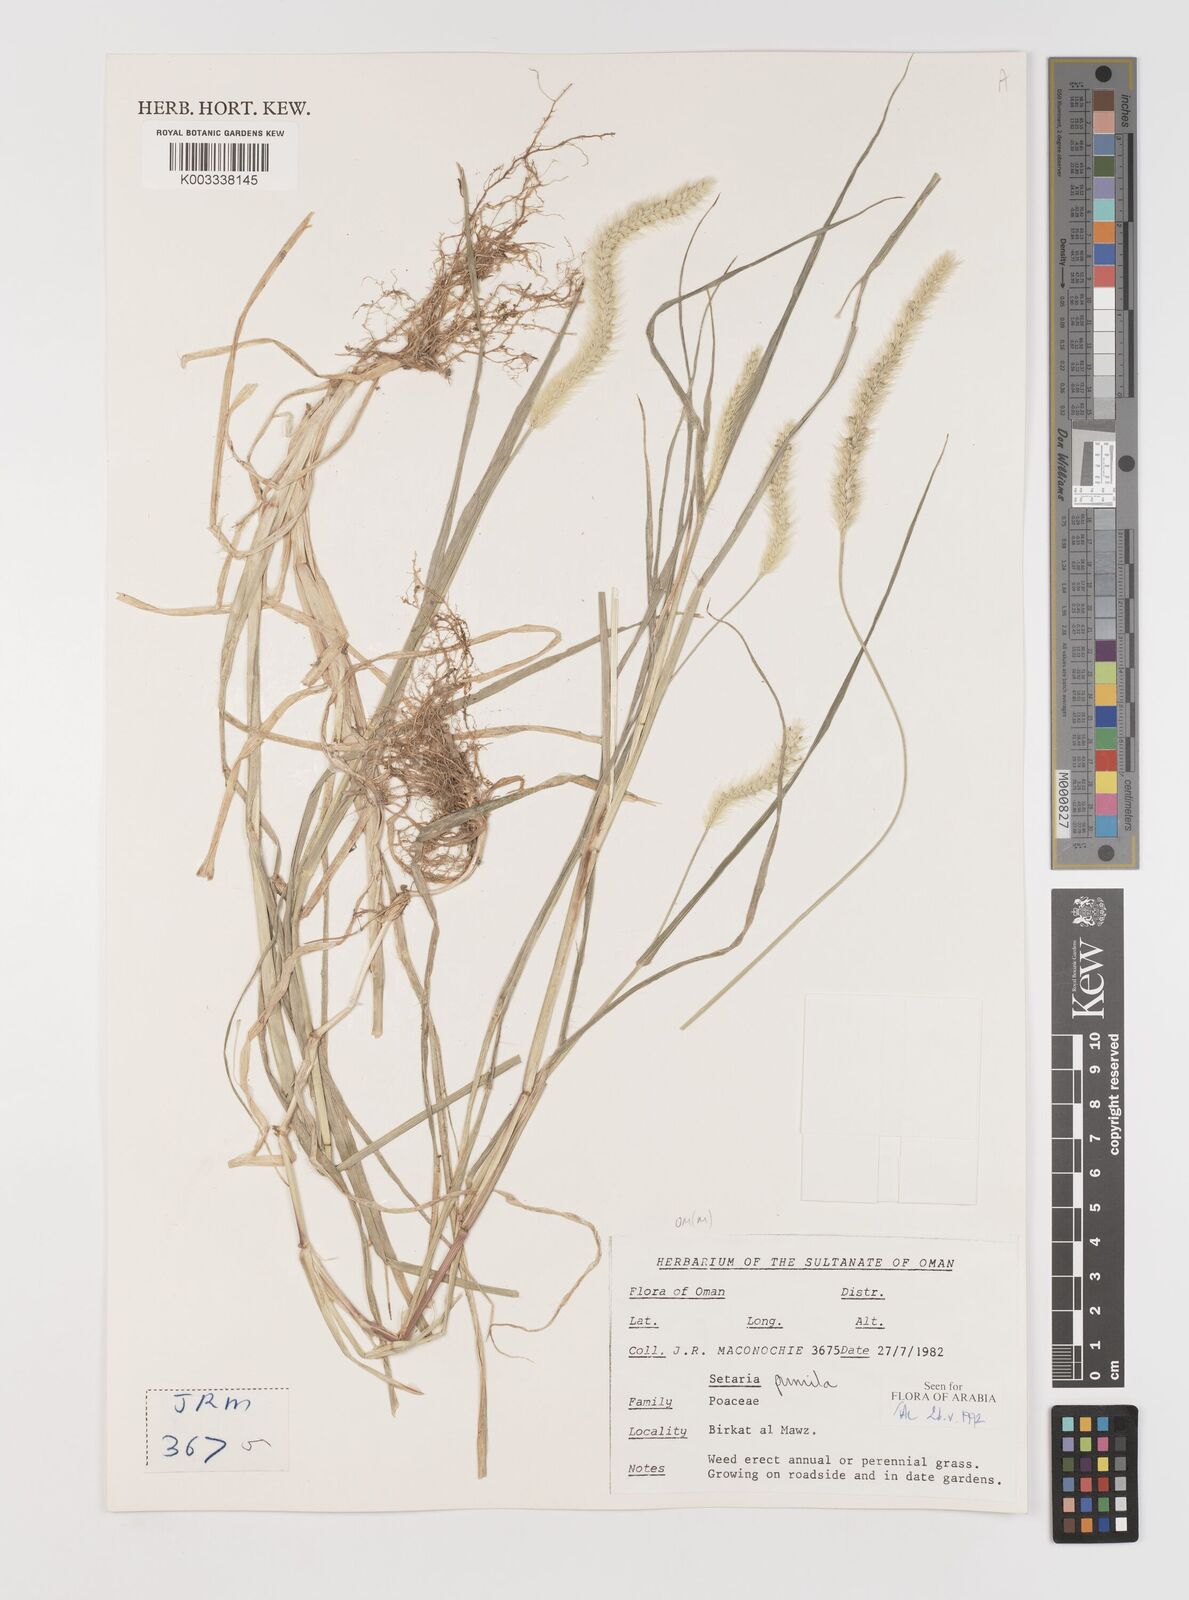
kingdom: Plantae
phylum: Tracheophyta
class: Liliopsida
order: Poales
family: Poaceae
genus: Setaria
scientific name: Setaria pumila
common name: Yellow bristle-grass
